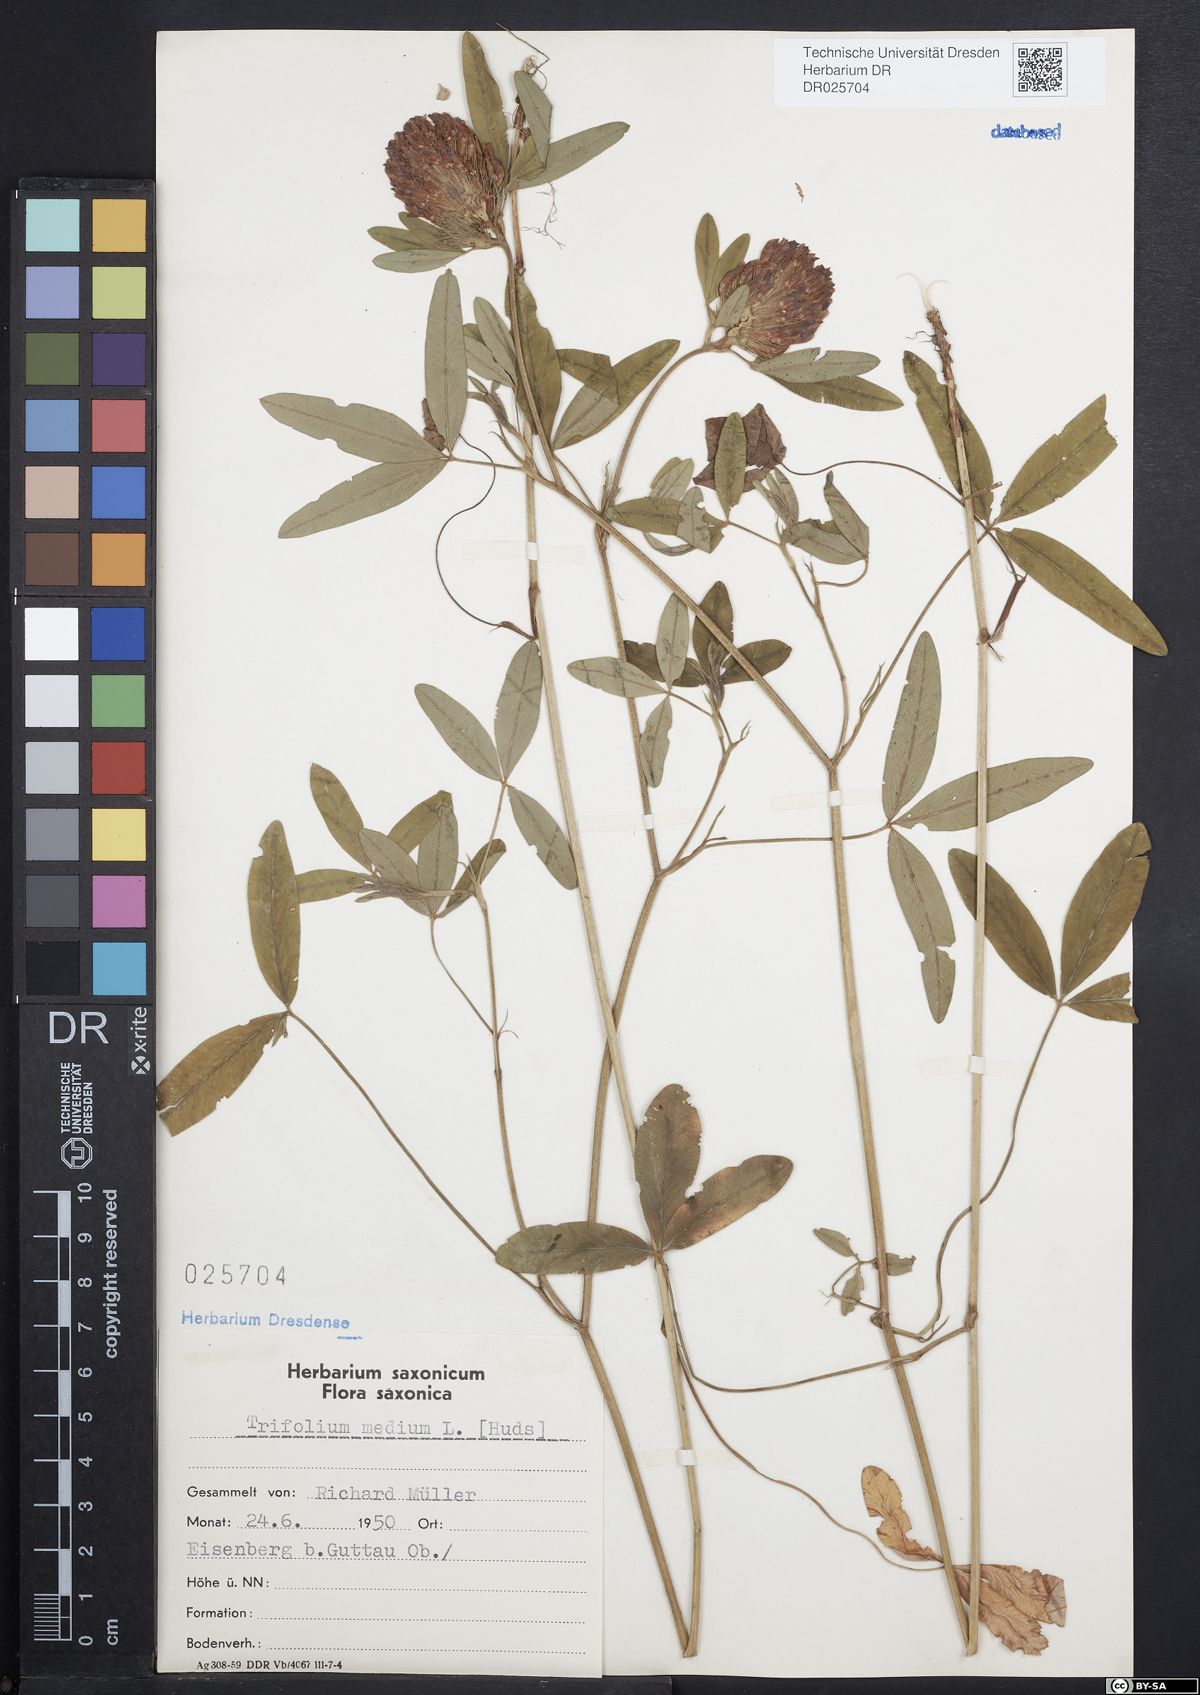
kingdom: Plantae
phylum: Tracheophyta
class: Magnoliopsida
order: Fabales
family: Fabaceae
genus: Trifolium
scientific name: Trifolium medium
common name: Zigzag clover
